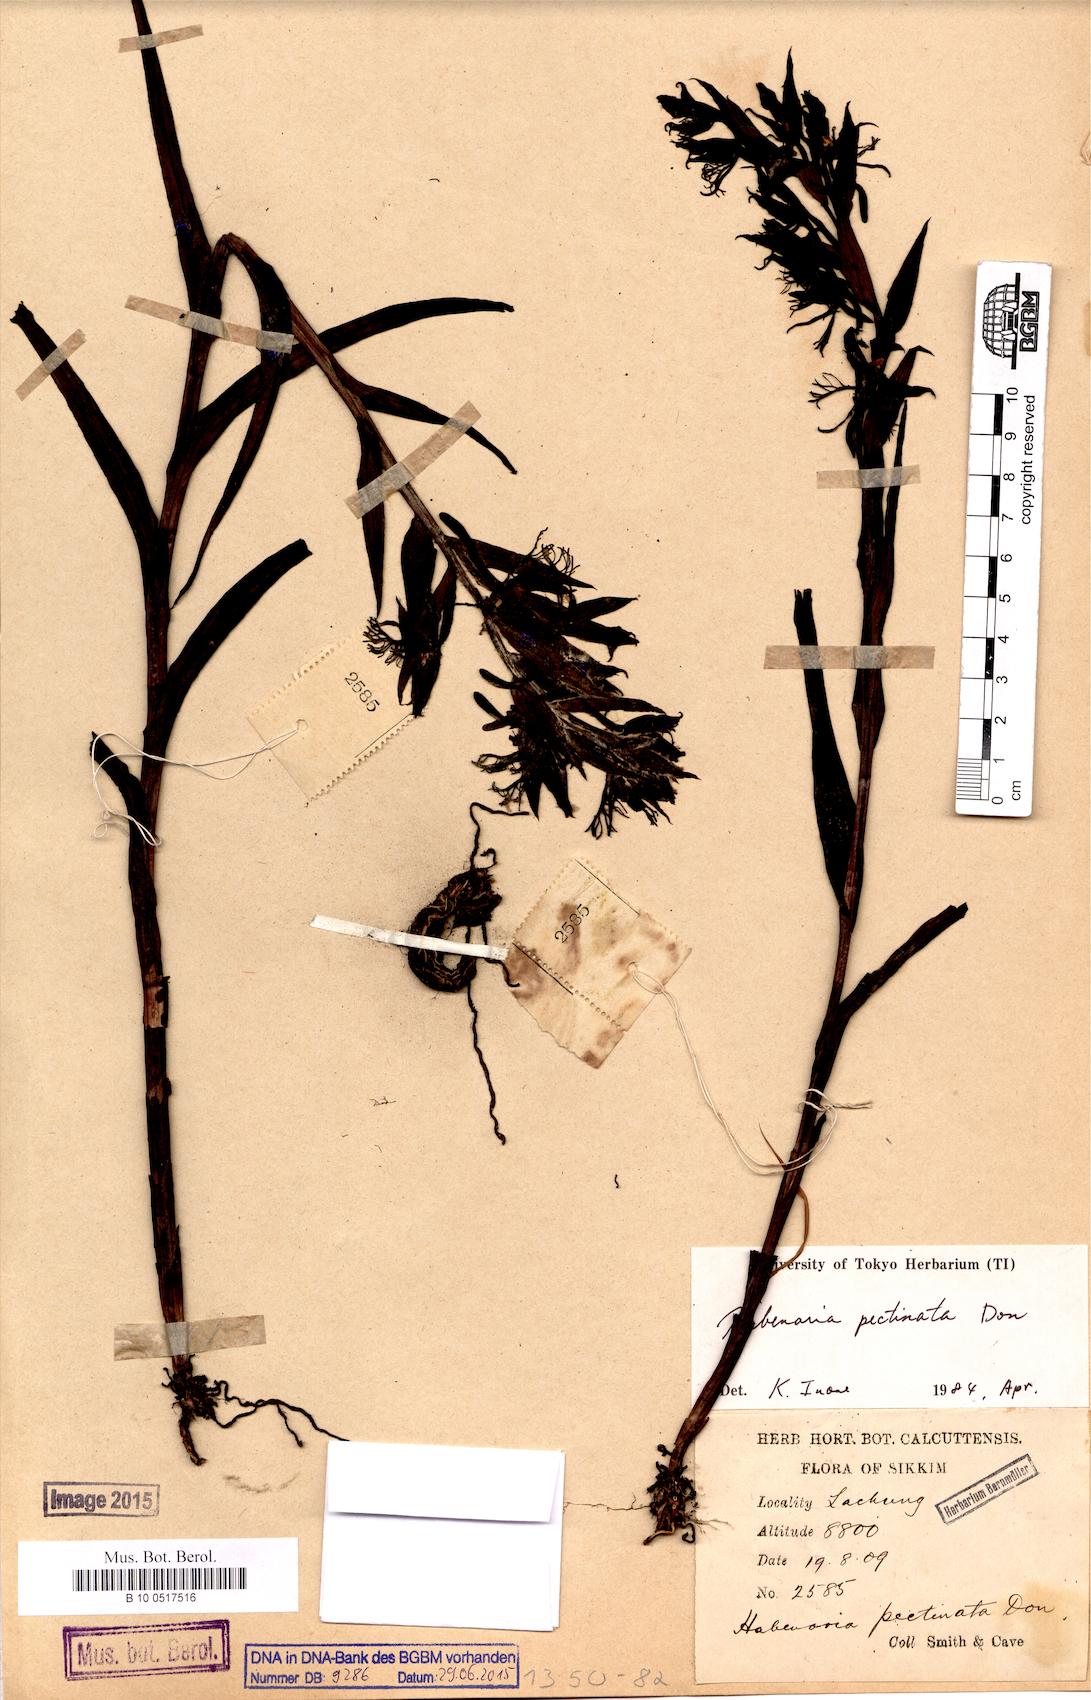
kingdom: Plantae
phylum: Tracheophyta
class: Liliopsida
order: Asparagales
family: Orchidaceae
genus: Habenaria
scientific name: Habenaria pectinata
